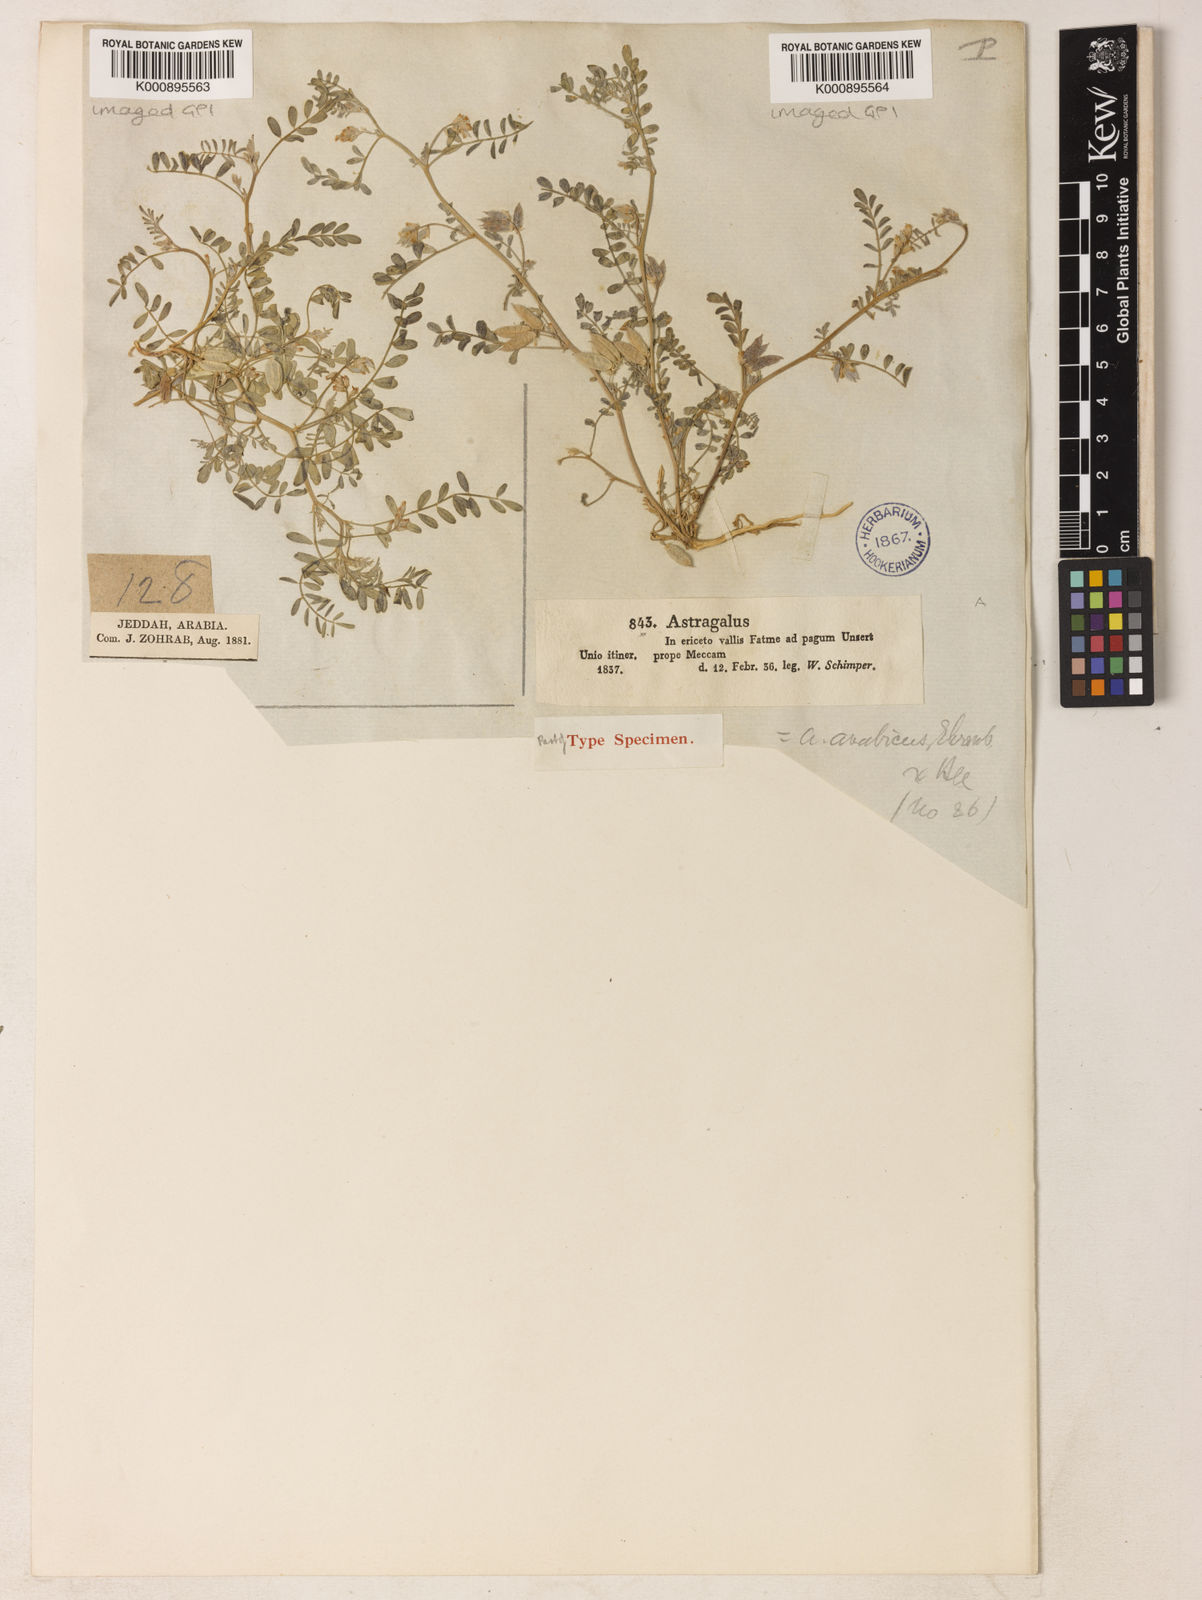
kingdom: Plantae
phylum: Tracheophyta
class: Magnoliopsida
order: Fabales
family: Fabaceae
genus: Astragalus
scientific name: Astragalus vogelii
